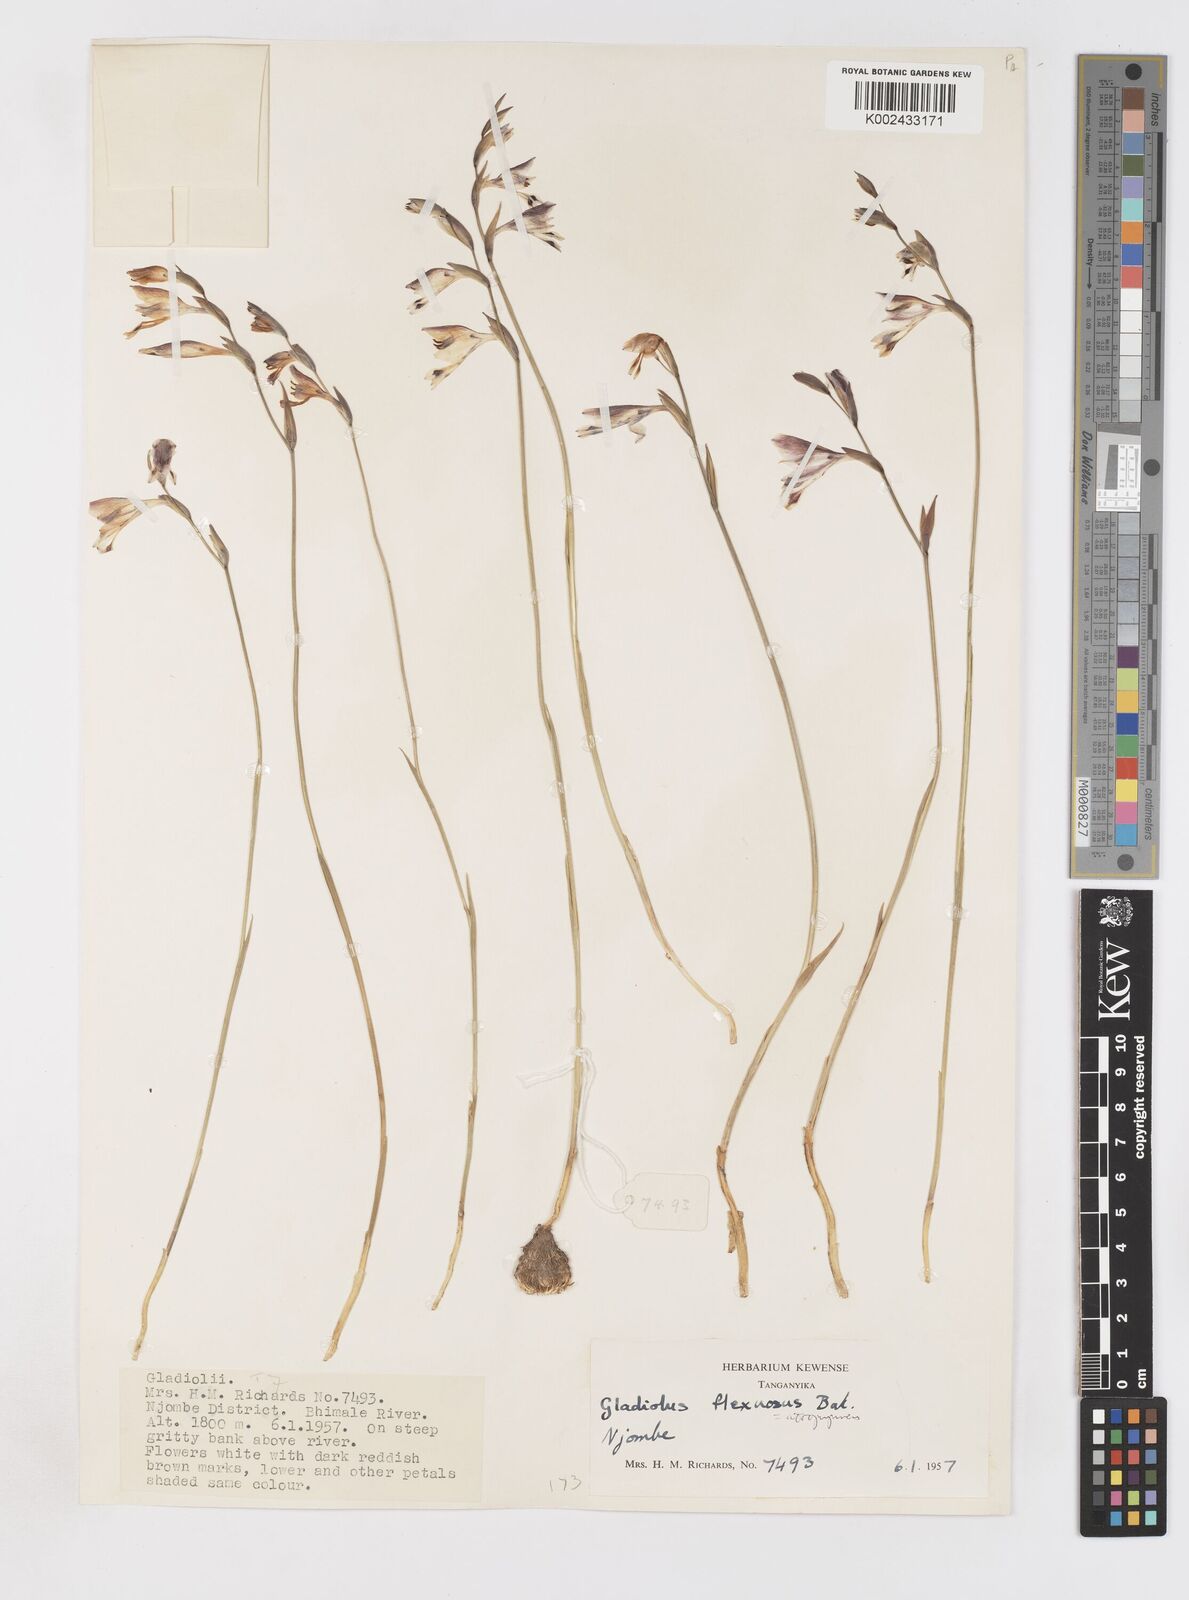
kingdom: Plantae
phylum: Tracheophyta
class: Liliopsida
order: Asparagales
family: Iridaceae
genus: Gladiolus
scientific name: Gladiolus atropurpureus
